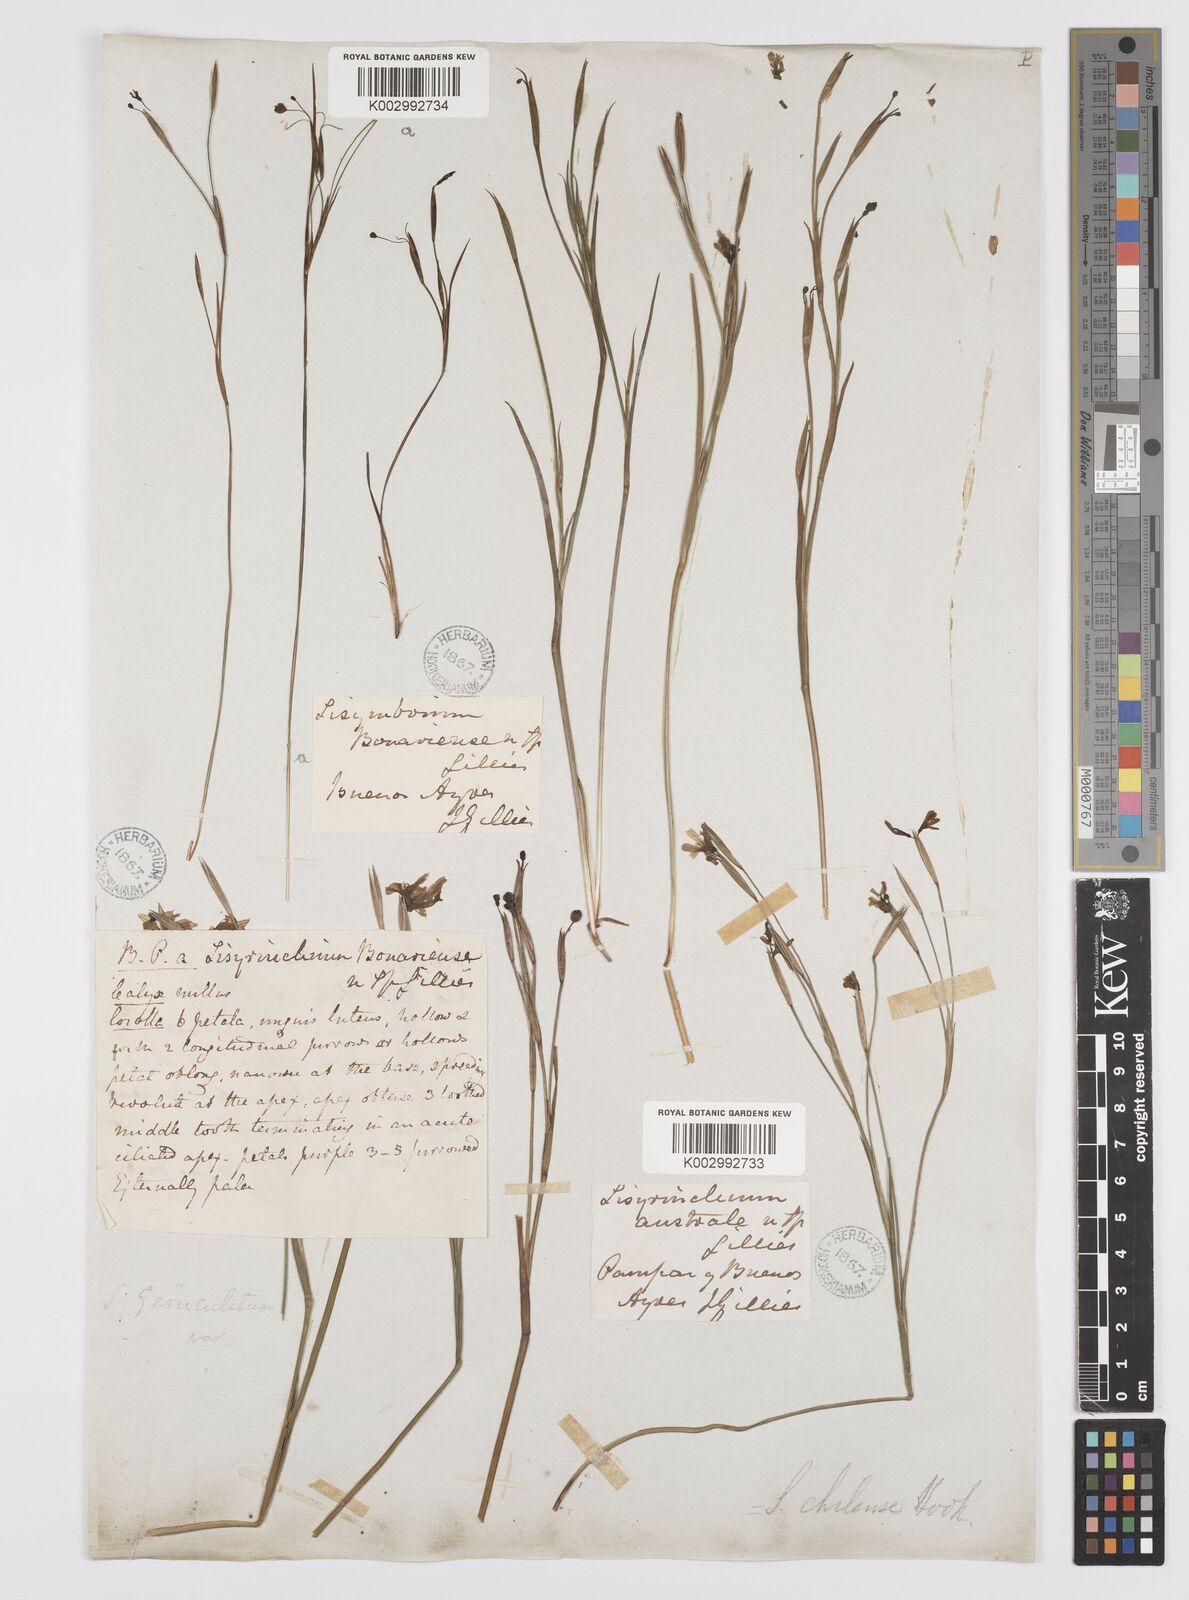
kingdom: Plantae
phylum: Tracheophyta
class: Liliopsida
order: Asparagales
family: Iridaceae
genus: Sisyrinchium
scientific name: Sisyrinchium chilense
